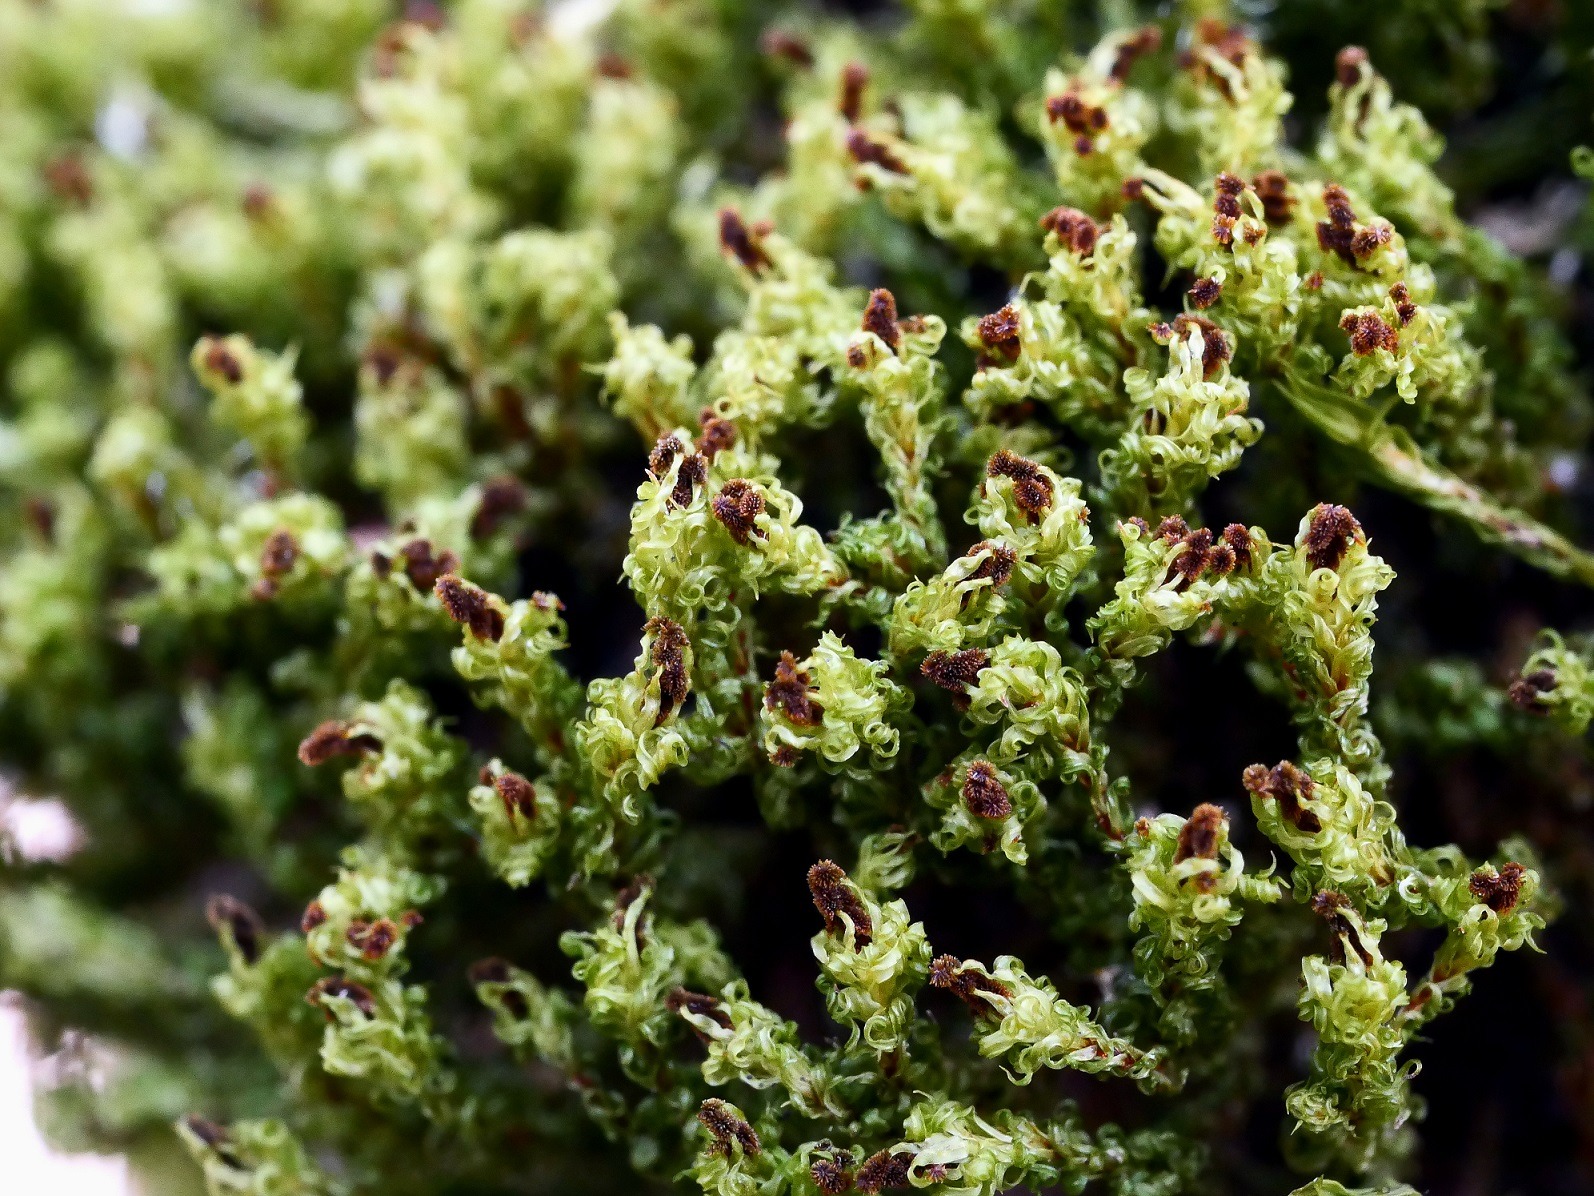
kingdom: Plantae
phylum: Bryophyta
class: Bryopsida
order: Orthotrichales
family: Orthotrichaceae
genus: Plenogemma
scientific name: Plenogemma phyllantha
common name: Stor låddenhætte
